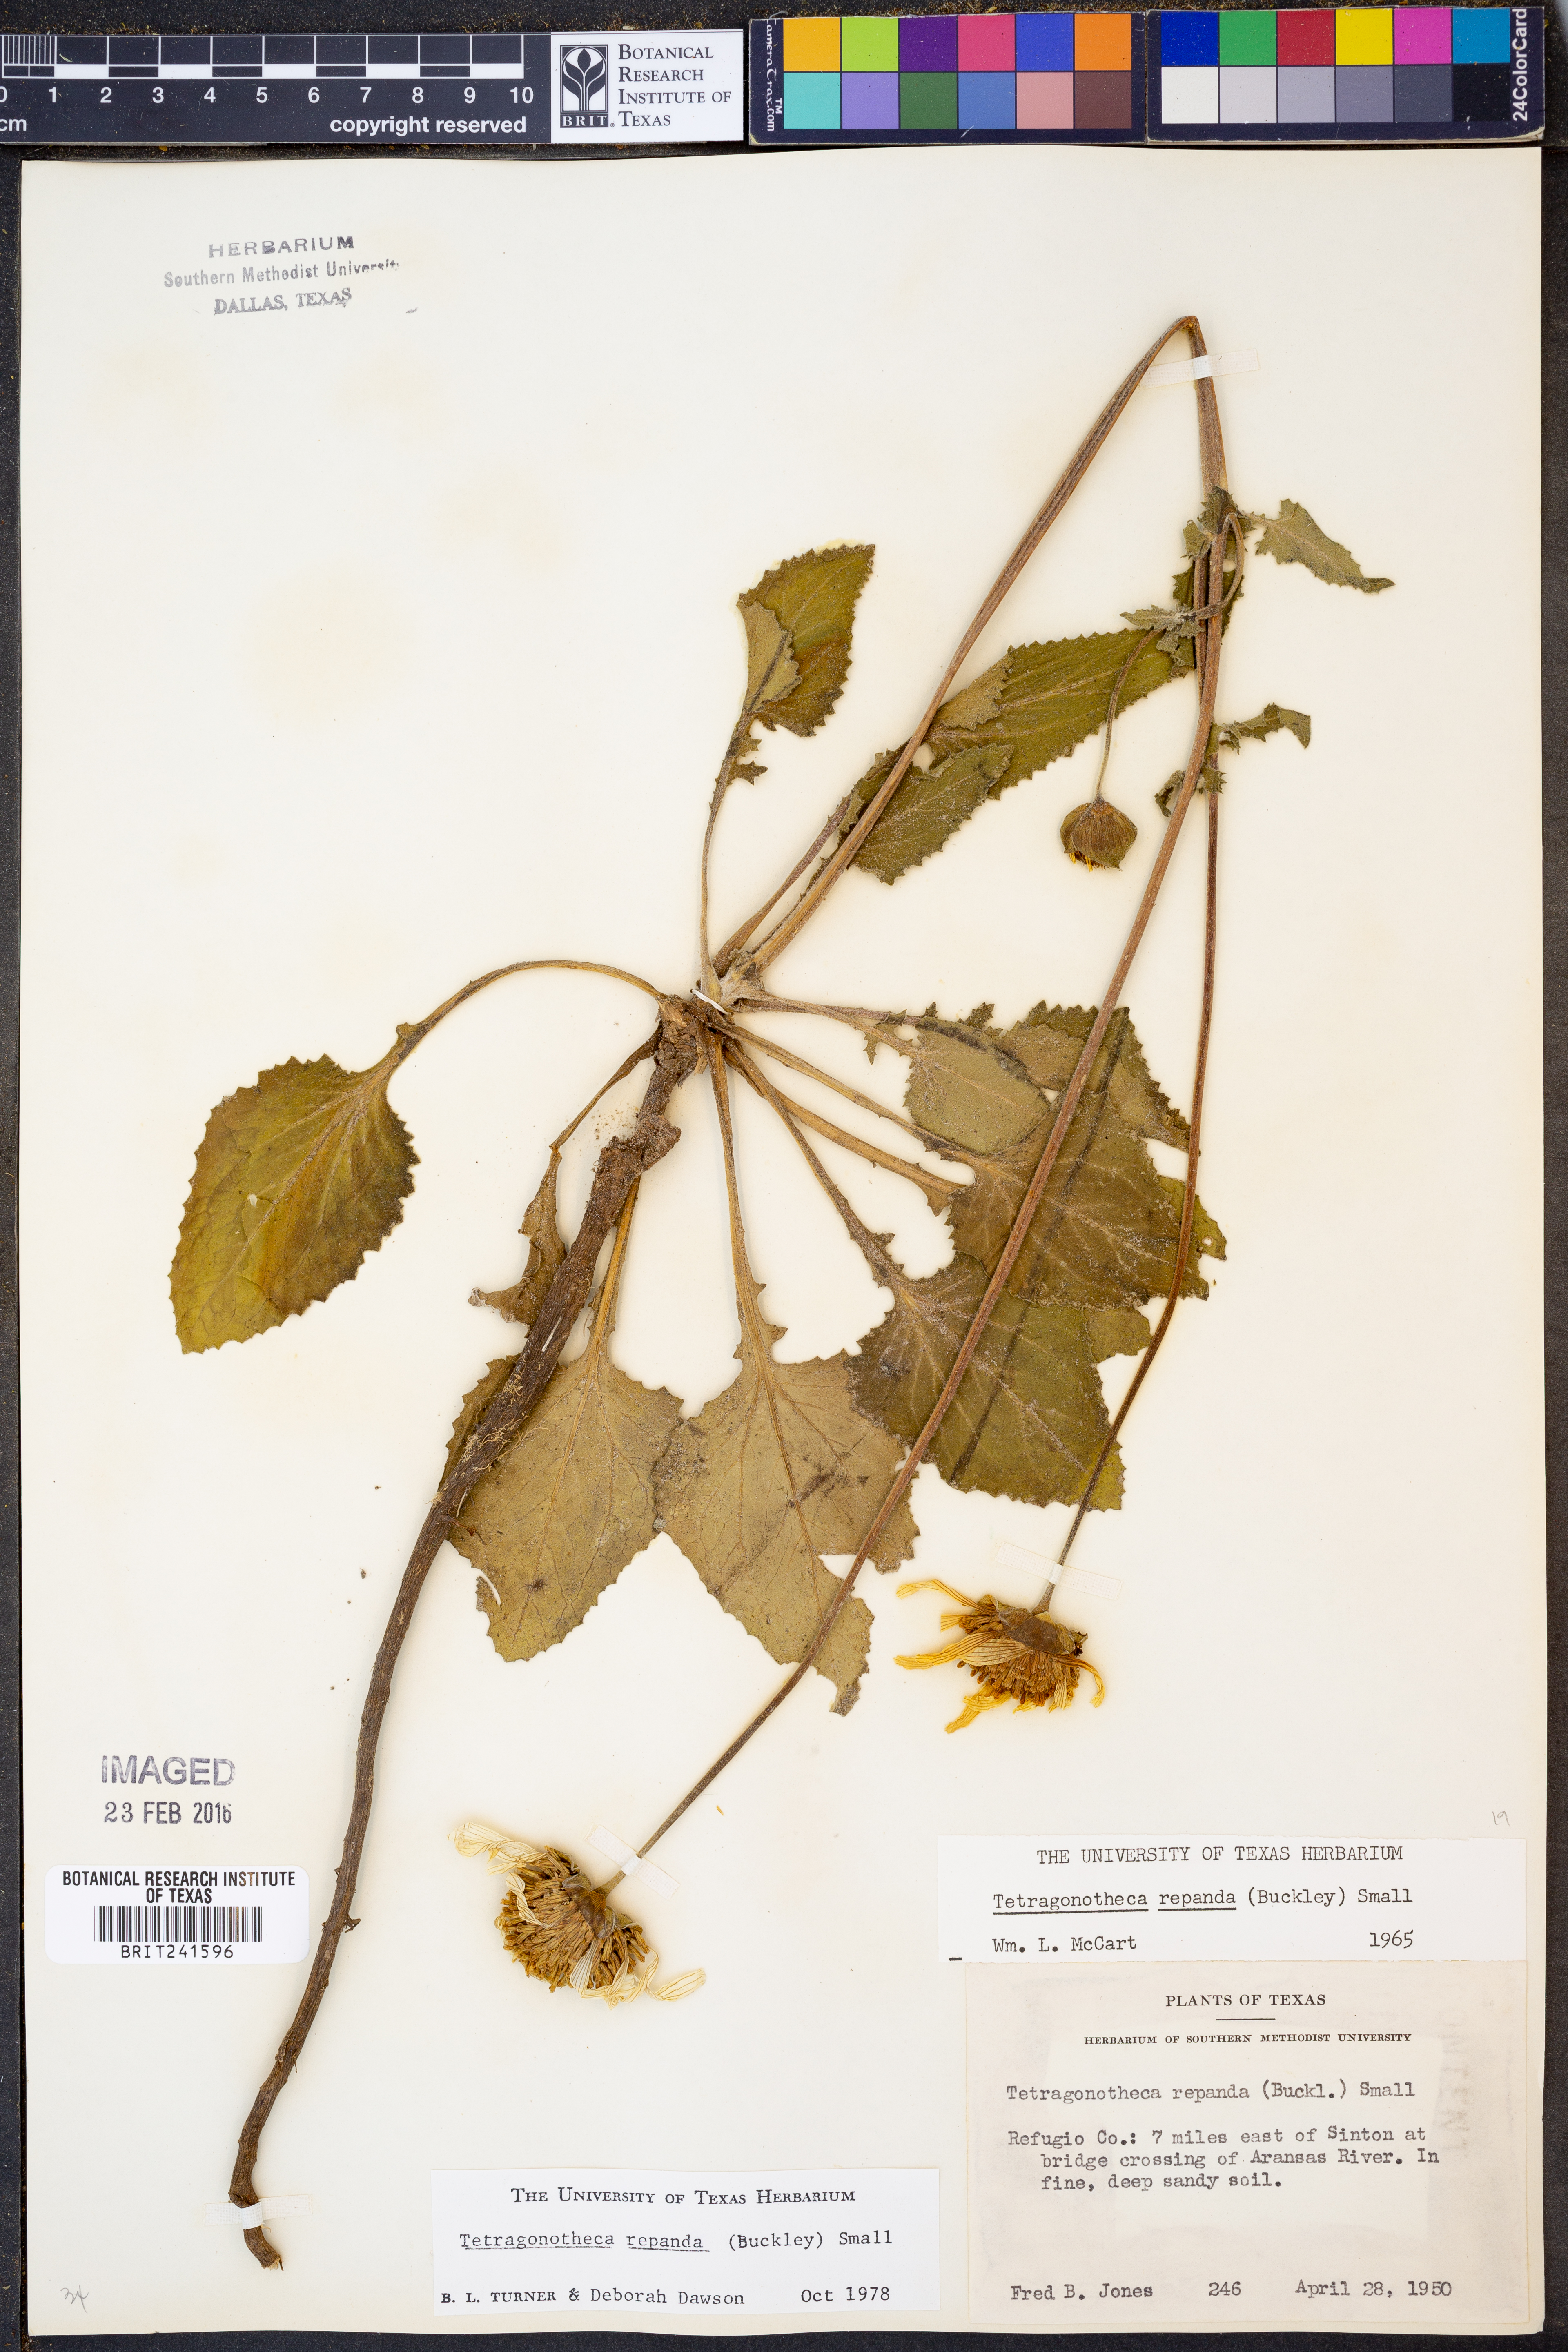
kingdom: Plantae
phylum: Tracheophyta
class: Magnoliopsida
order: Asterales
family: Asteraceae
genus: Tetragonotheca
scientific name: Tetragonotheca repanda
